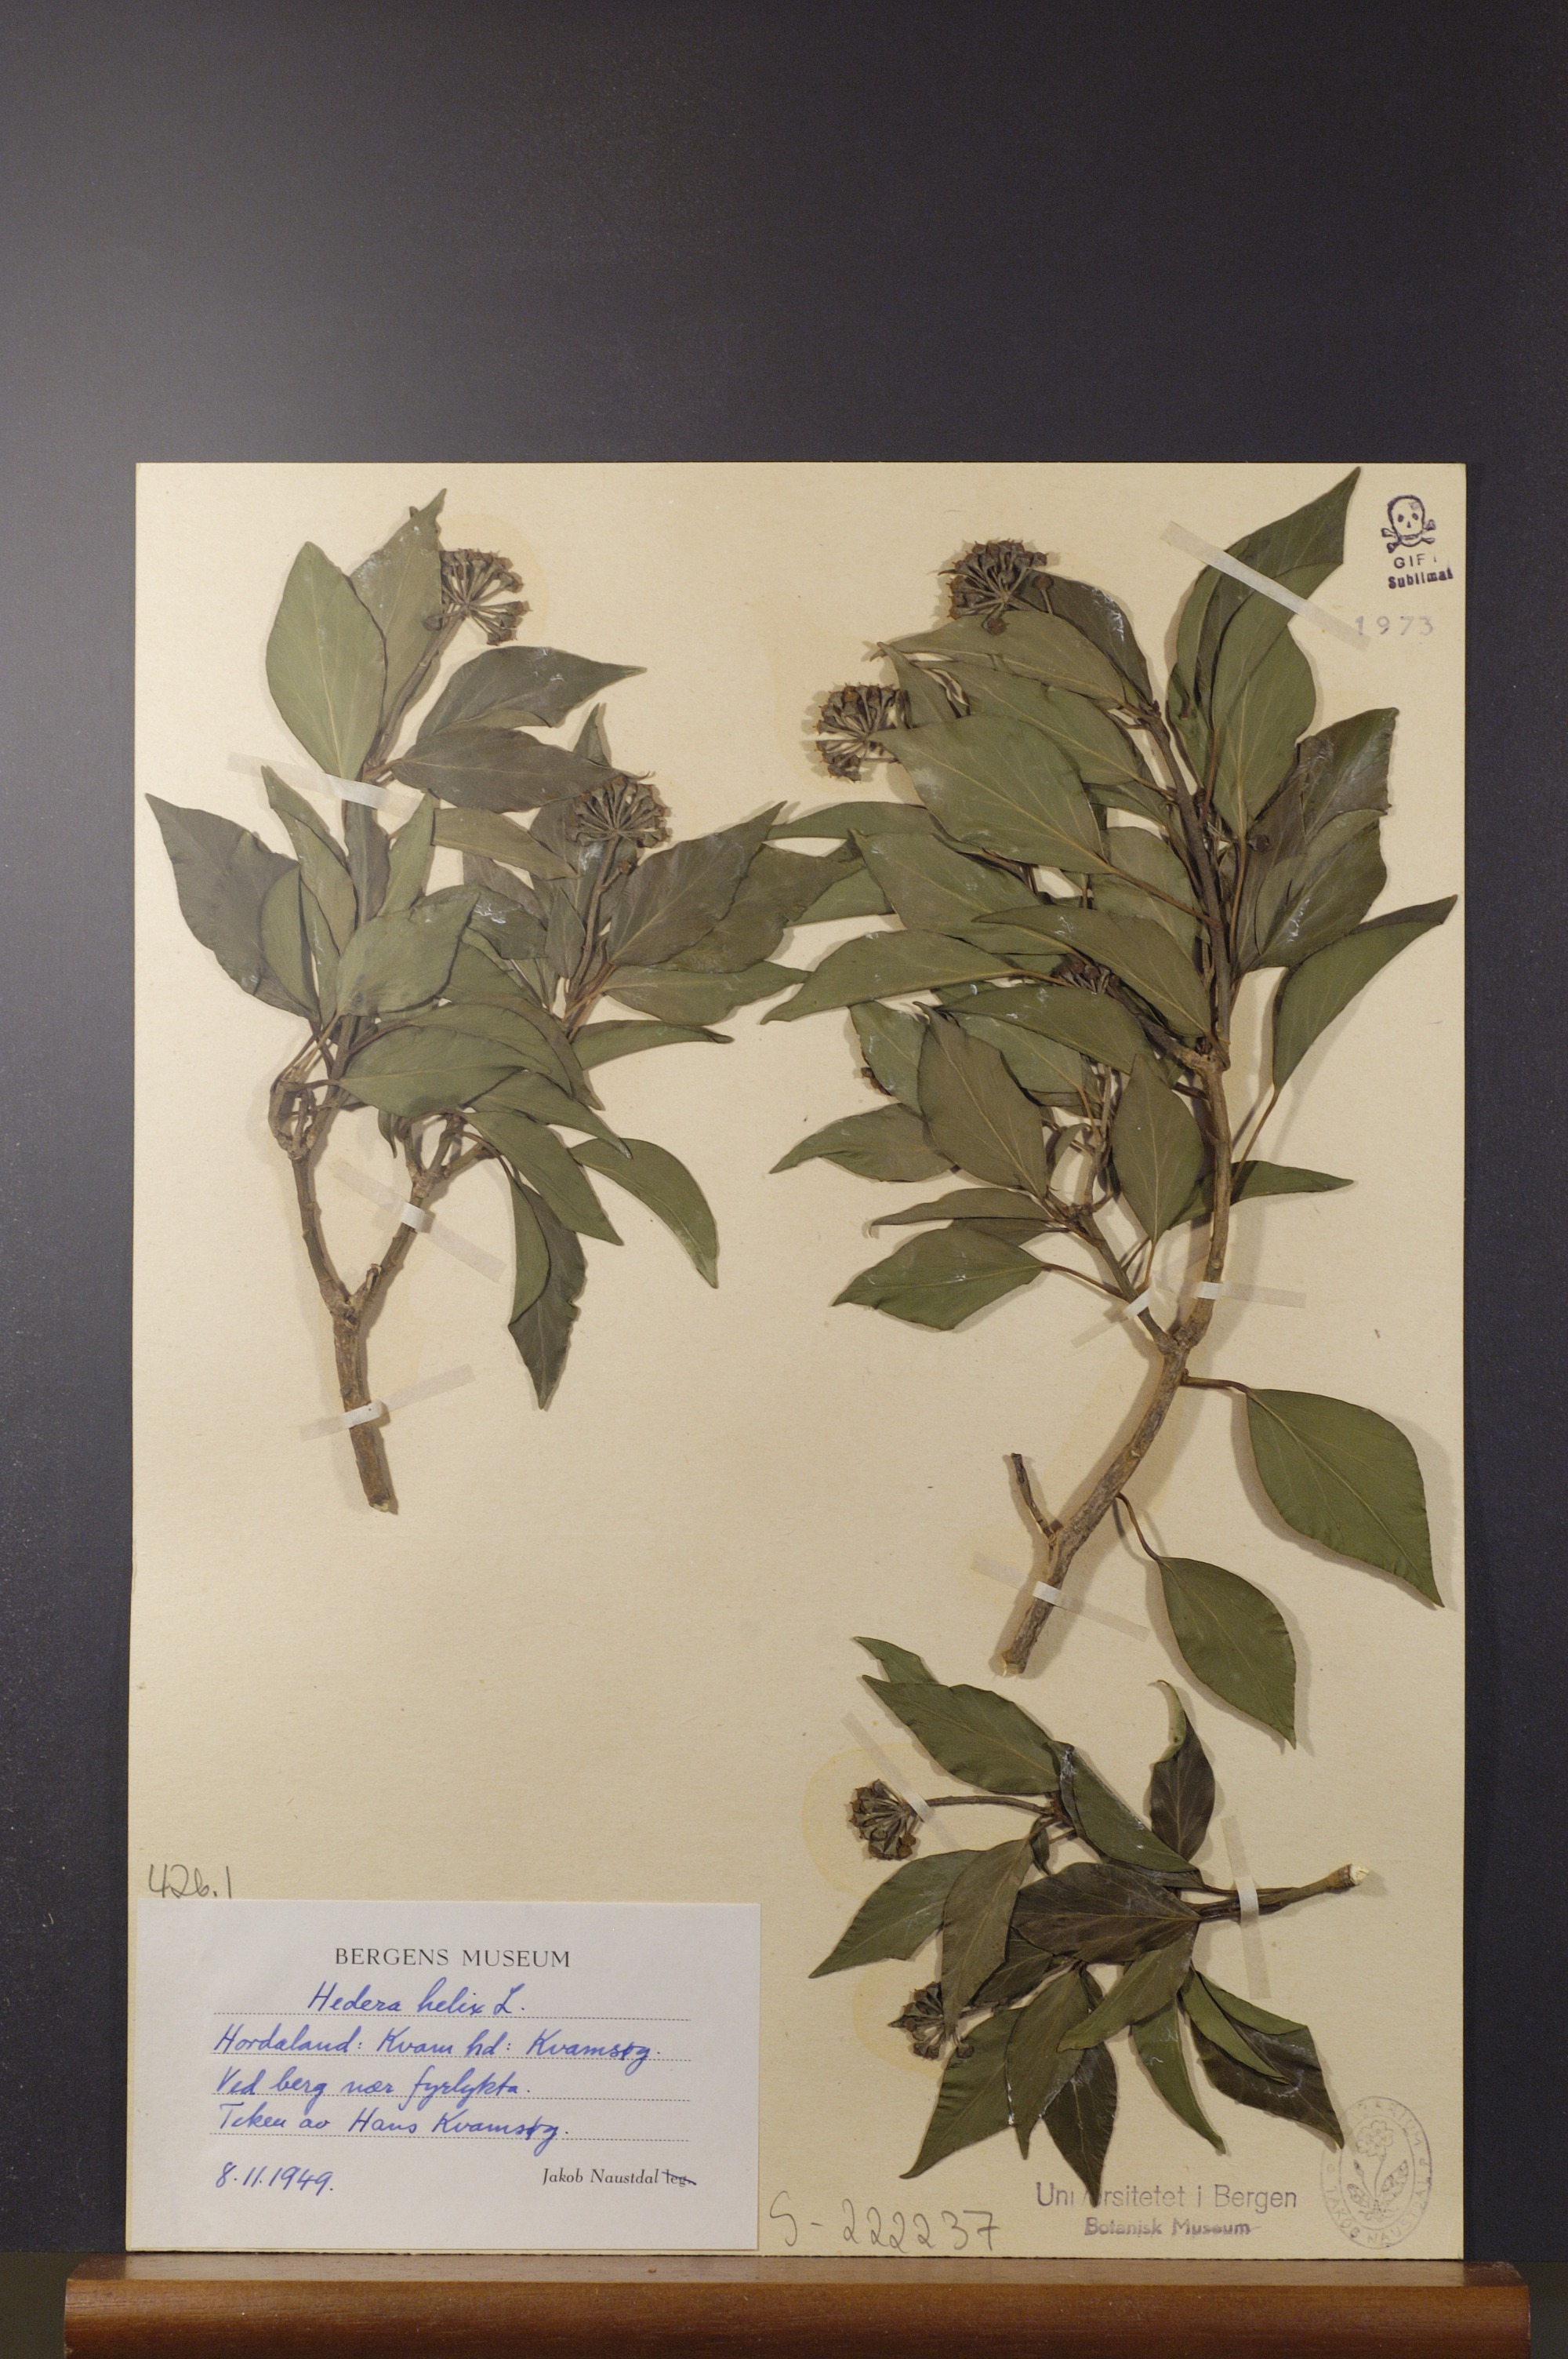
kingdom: Plantae
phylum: Tracheophyta
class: Magnoliopsida
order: Apiales
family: Araliaceae
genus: Hedera
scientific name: Hedera helix
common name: Ivy
